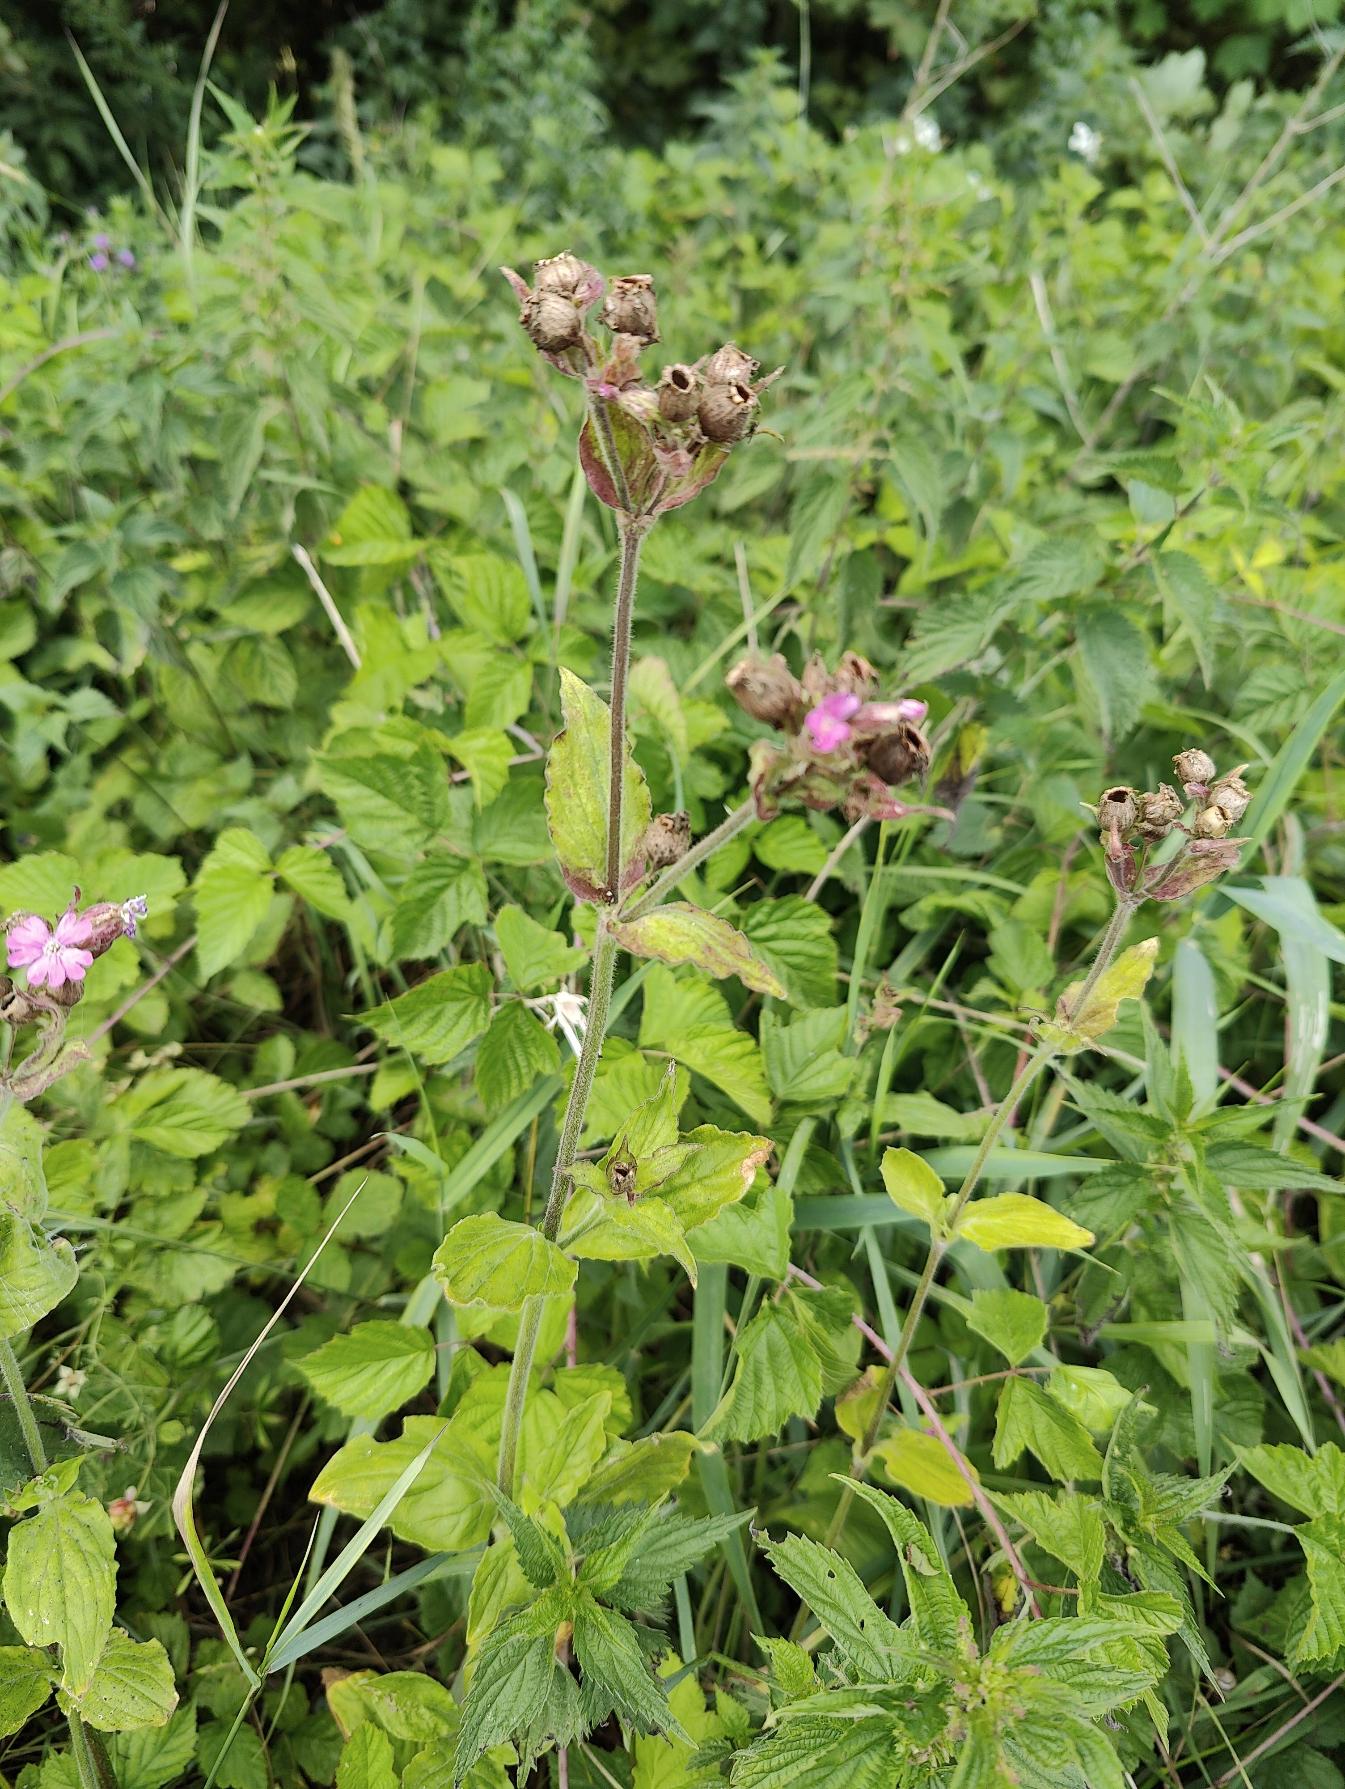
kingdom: Plantae
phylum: Tracheophyta
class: Magnoliopsida
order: Caryophyllales
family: Caryophyllaceae
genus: Silene
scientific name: Silene dioica
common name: Dagpragtstjerne
